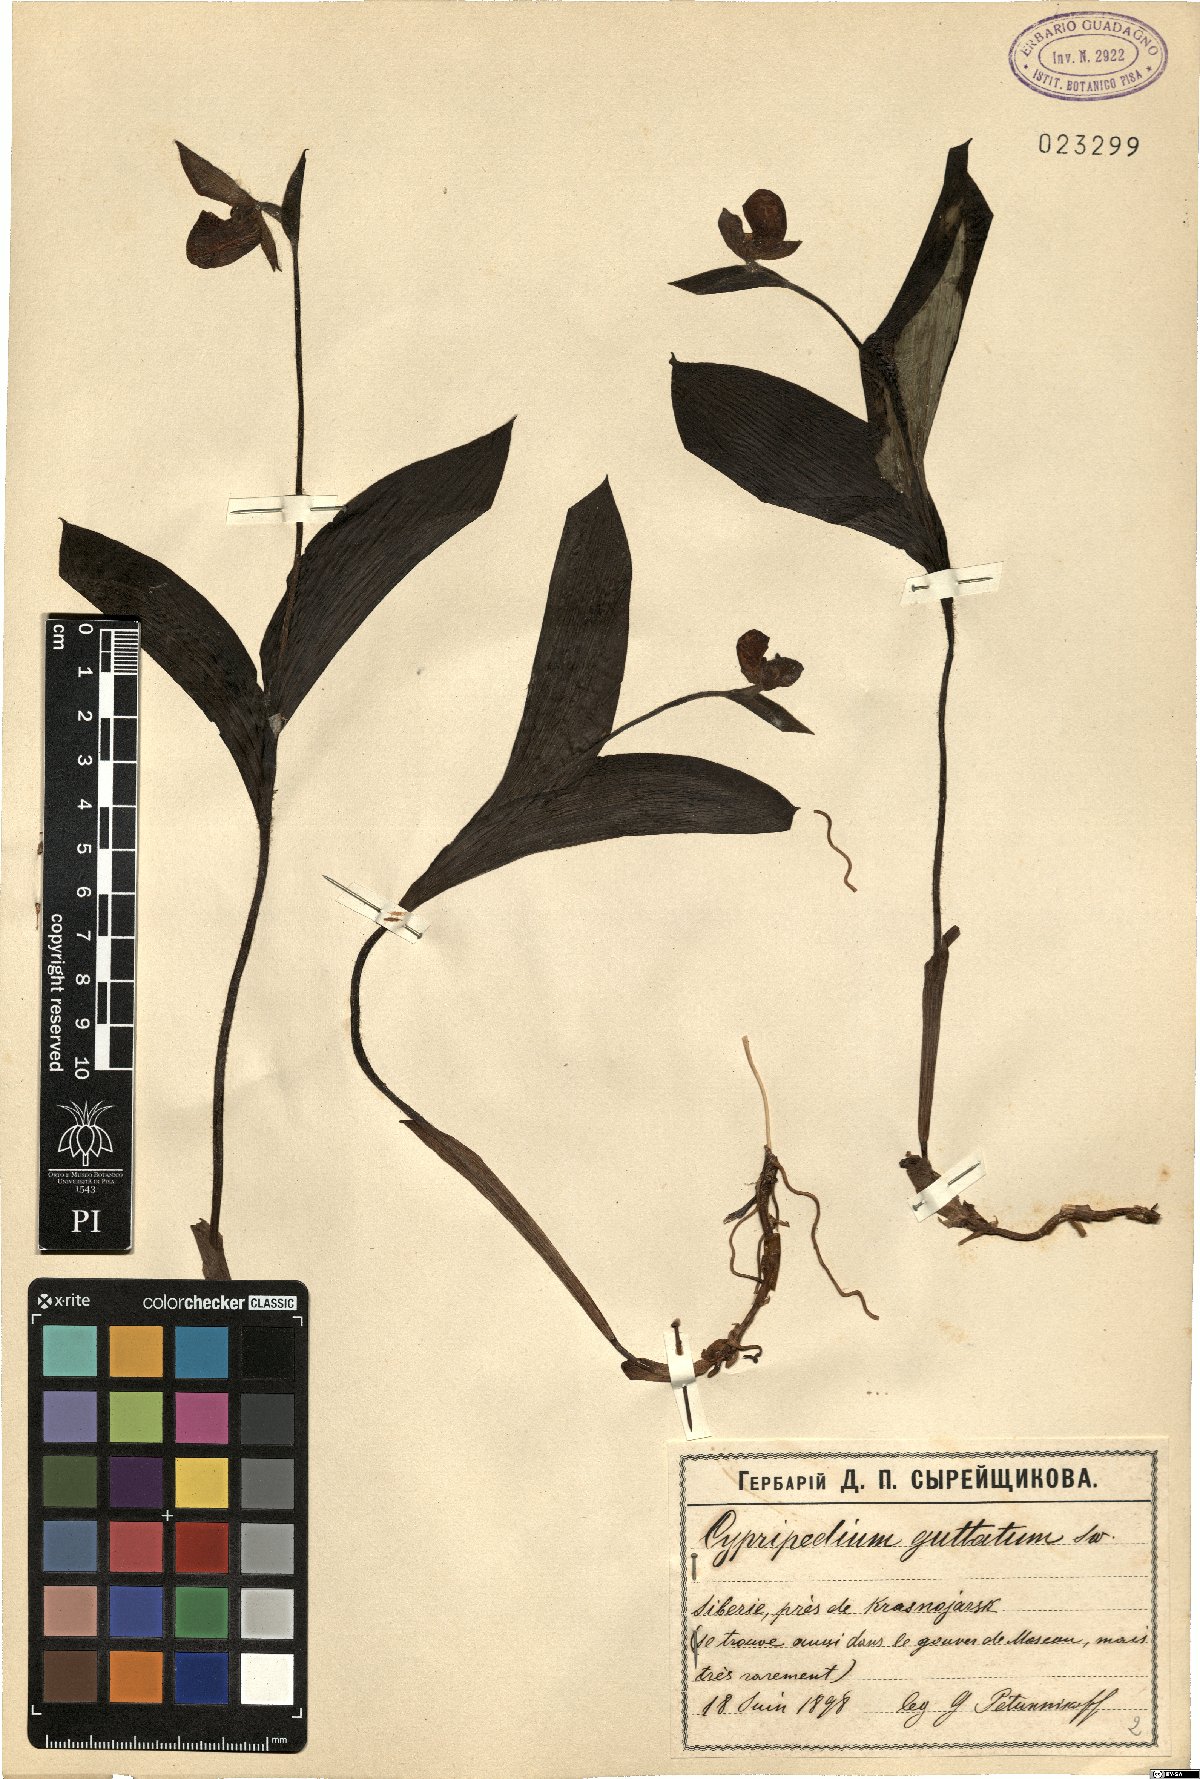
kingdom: Plantae
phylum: Tracheophyta
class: Liliopsida
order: Asparagales
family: Orchidaceae
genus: Cypripedium
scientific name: Cypripedium guttatum
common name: Pink lady slipper
